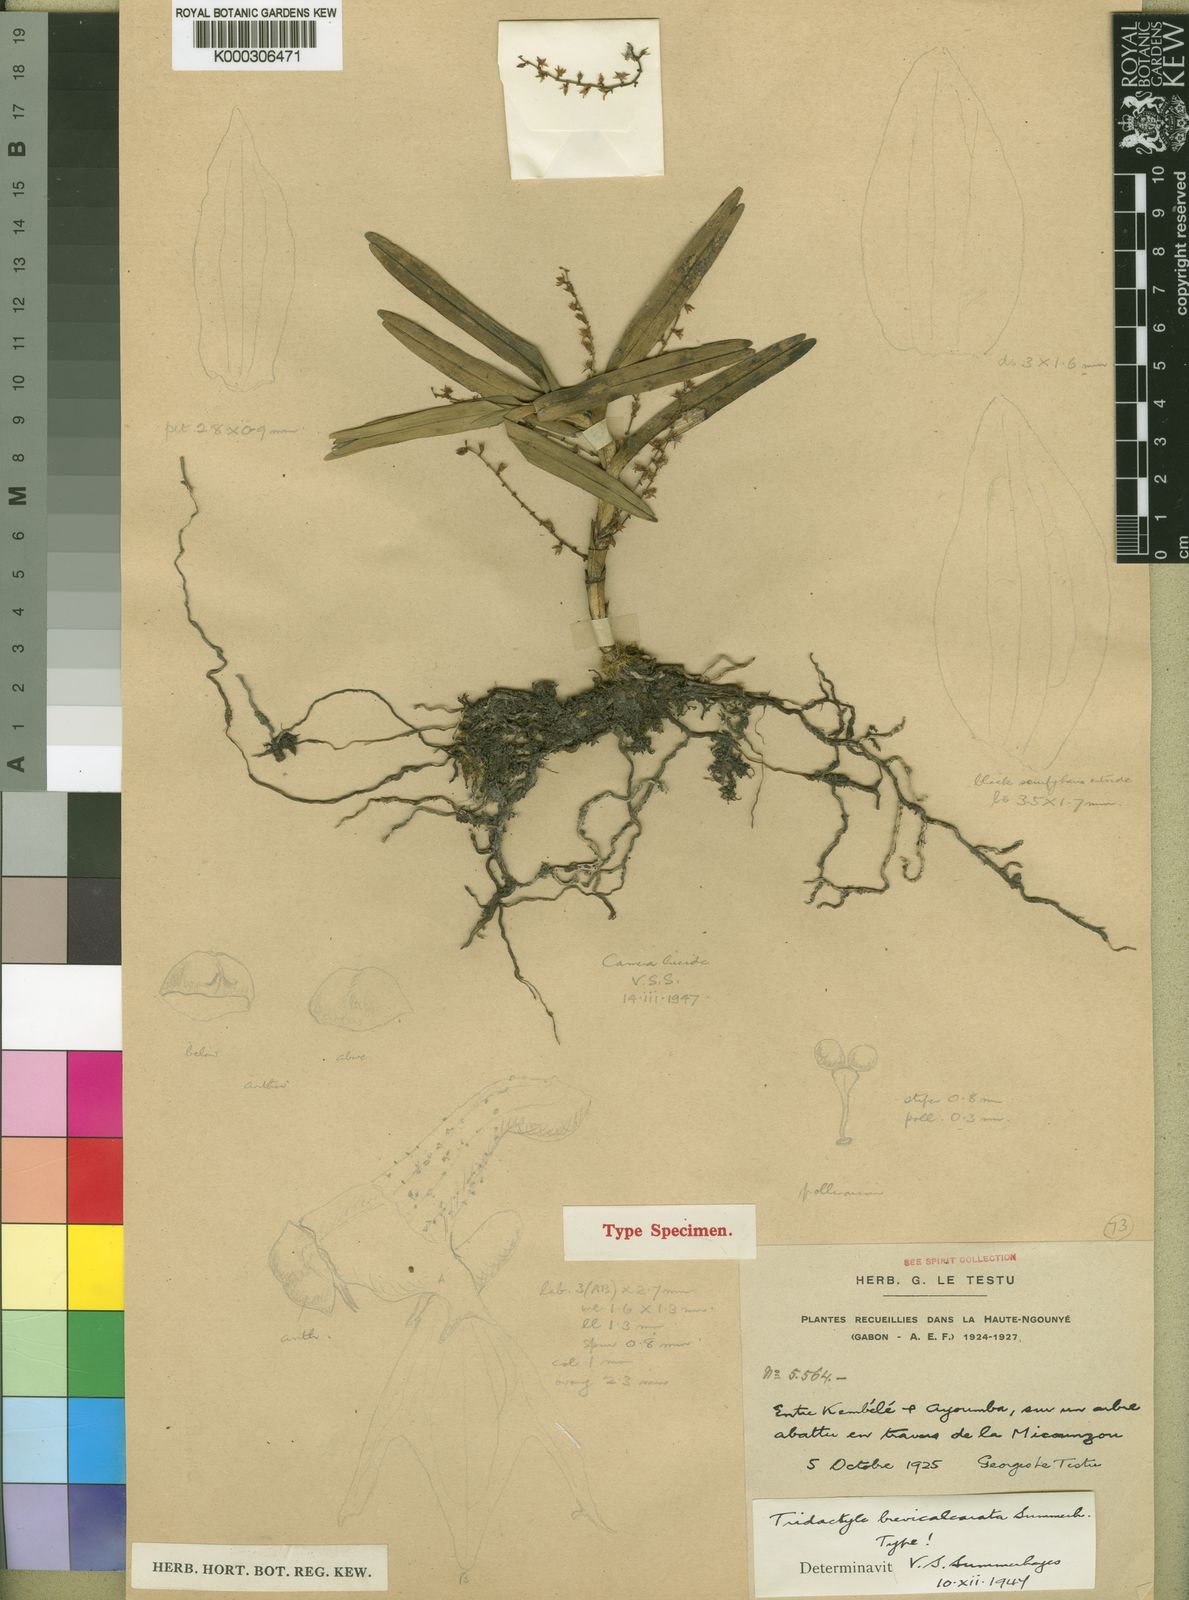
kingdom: Plantae
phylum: Tracheophyta
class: Liliopsida
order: Asparagales
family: Orchidaceae
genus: Tridactyle
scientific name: Tridactyle brevicalcarata
